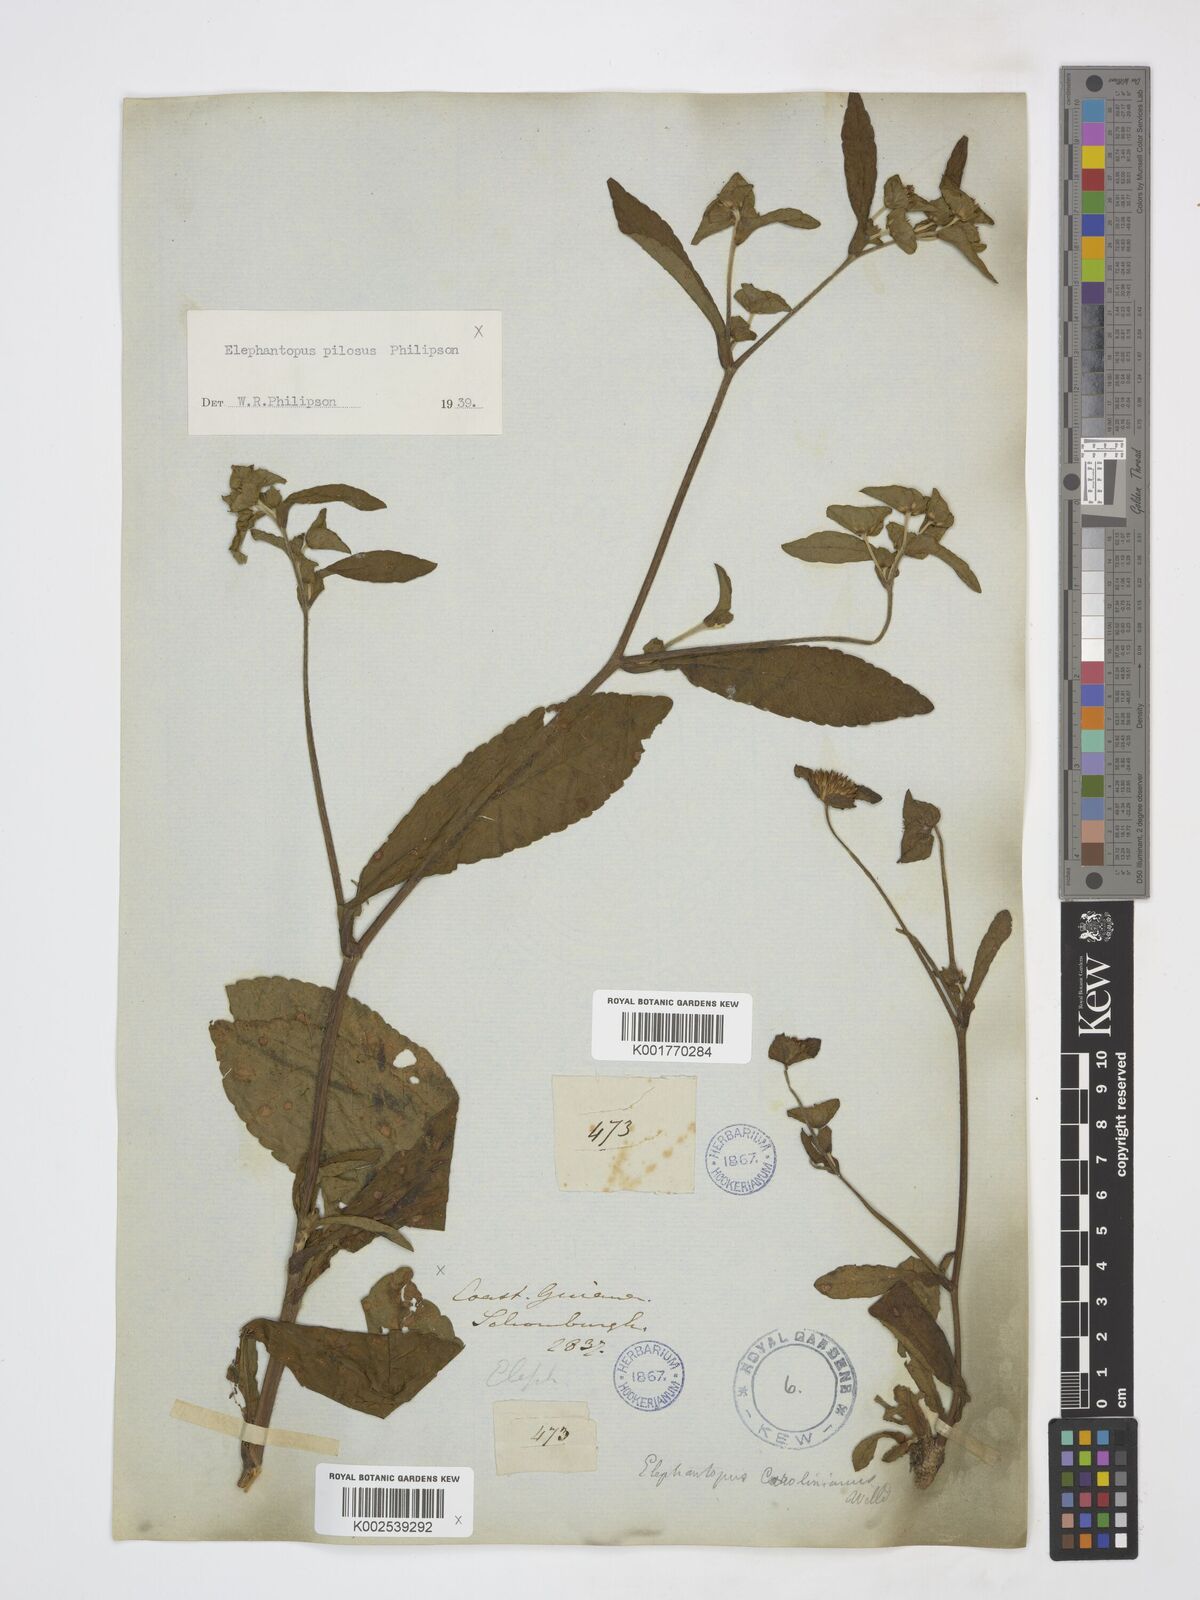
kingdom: Plantae
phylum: Tracheophyta
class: Magnoliopsida
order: Asterales
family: Asteraceae
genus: Elephantopus
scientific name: Elephantopus mollis
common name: Soft elephantsfoot
